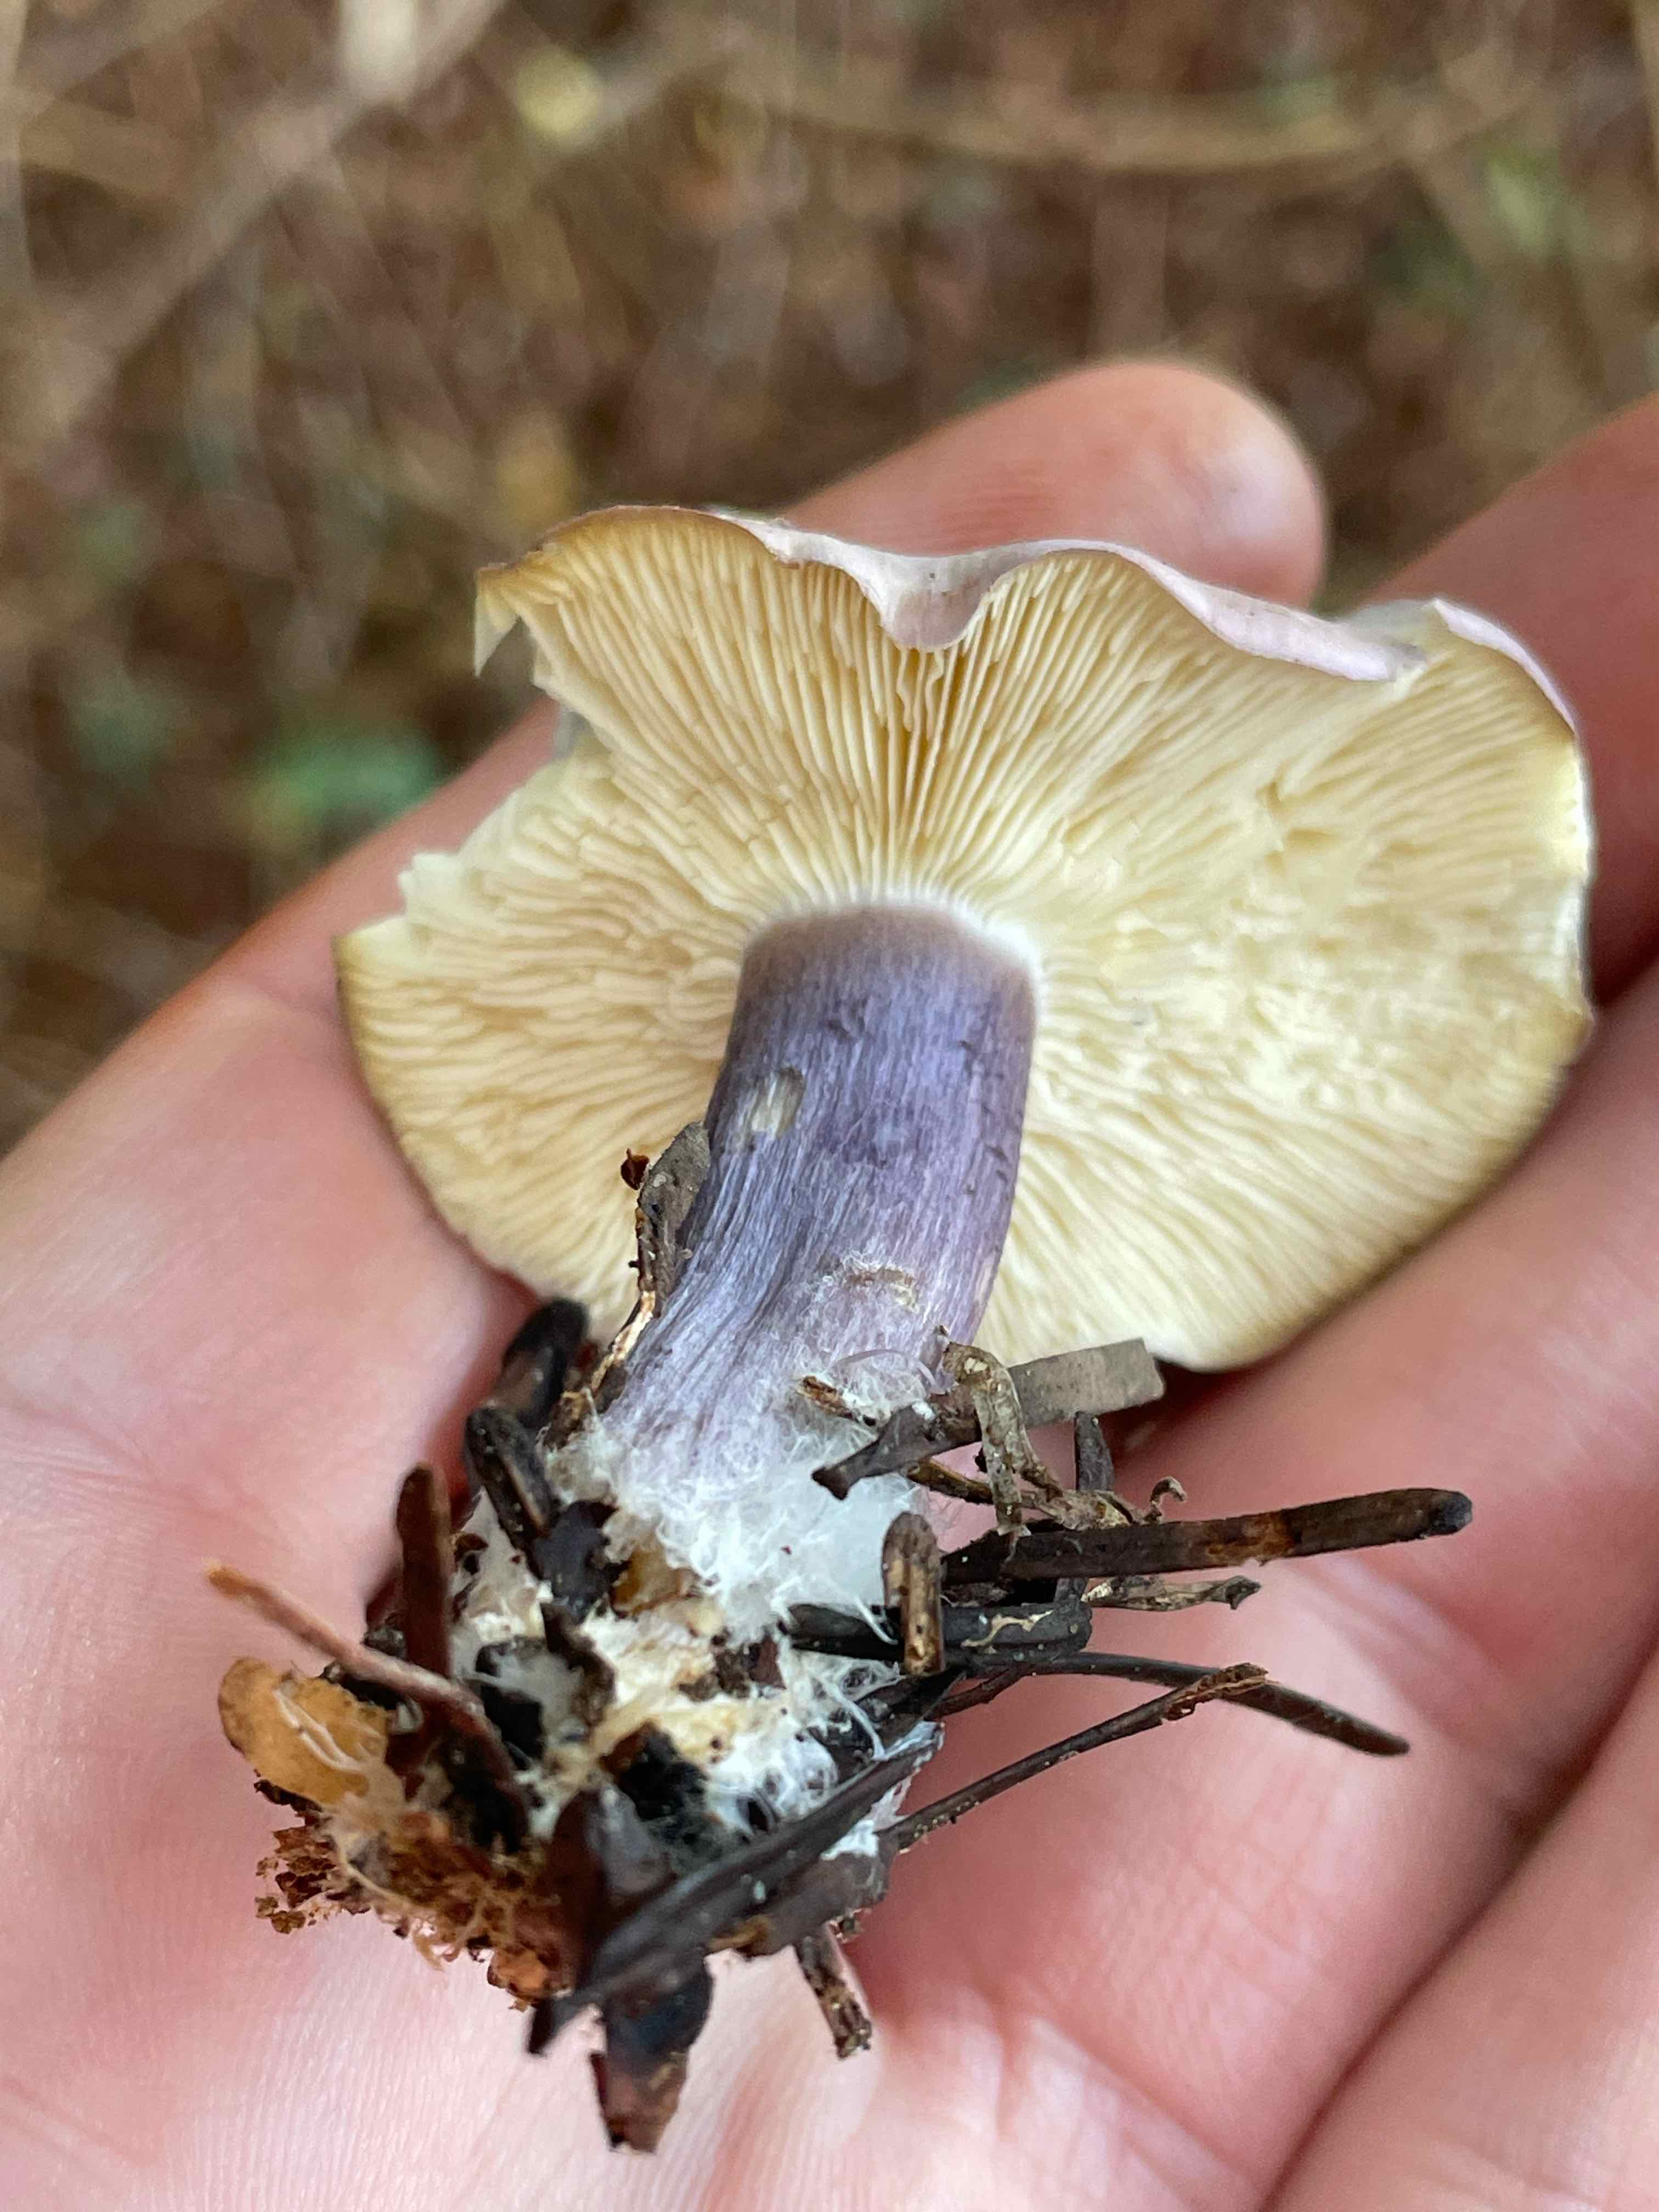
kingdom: Fungi
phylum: Basidiomycota
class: Agaricomycetes
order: Agaricales
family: Lyophyllaceae
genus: Calocybe
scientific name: Calocybe ionides
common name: violblå fagerhat
